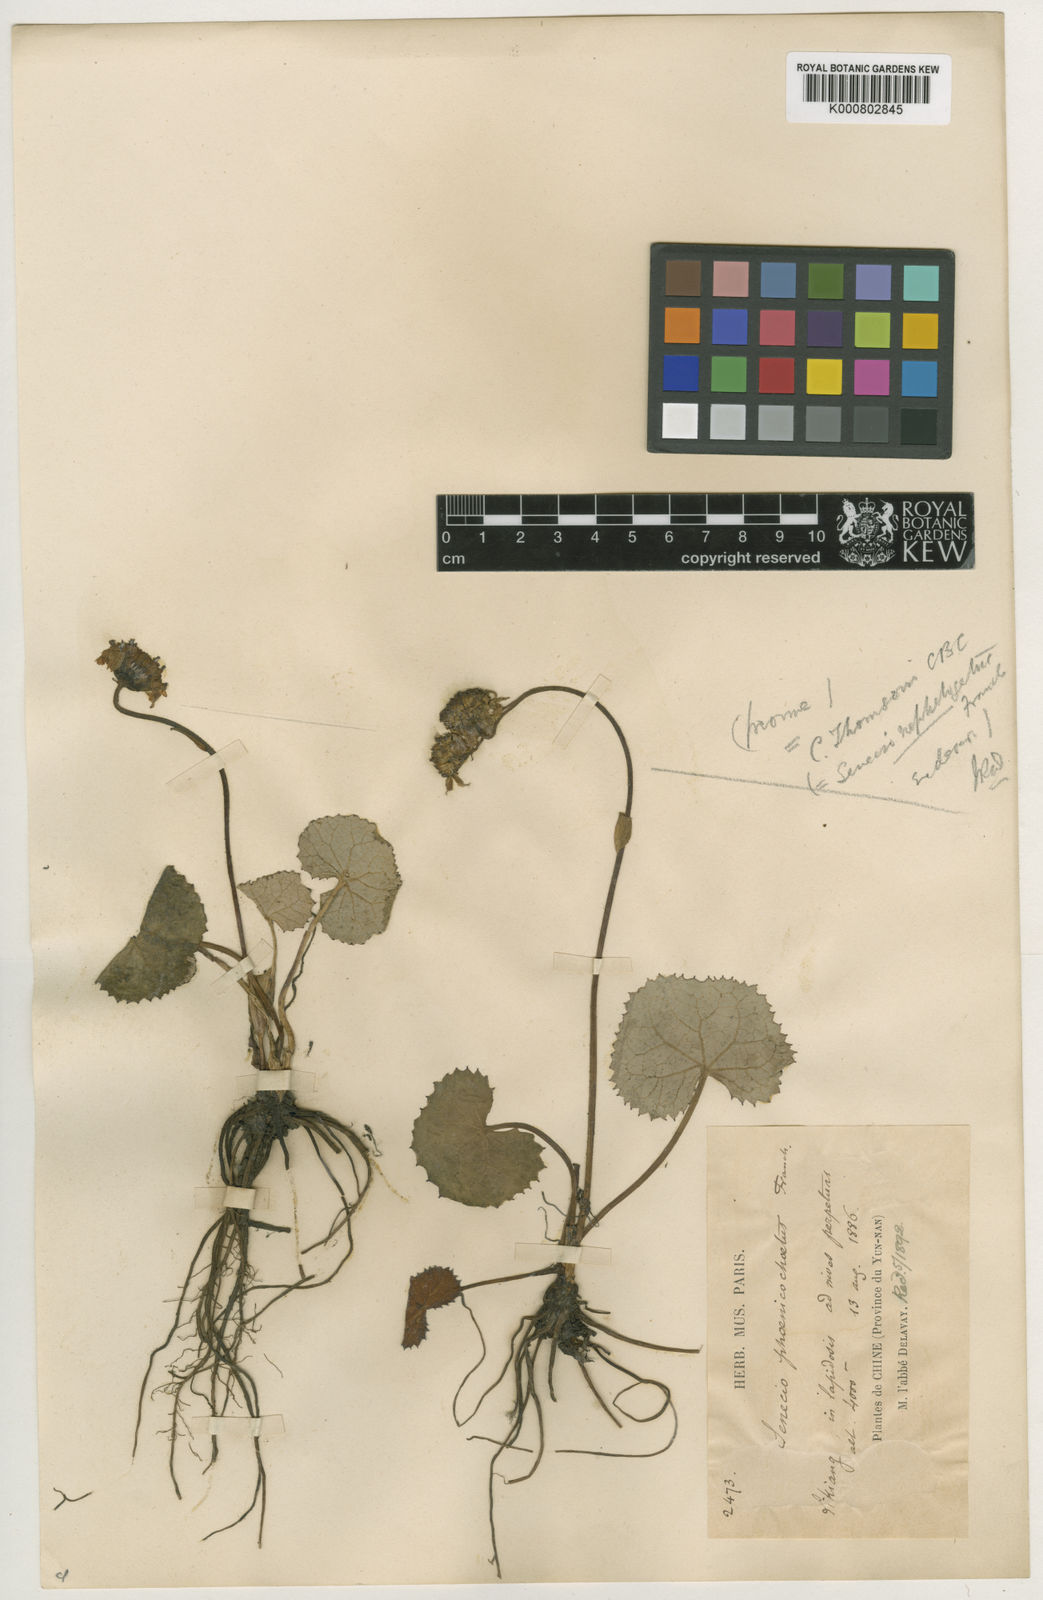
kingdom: Plantae
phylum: Tracheophyta
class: Magnoliopsida
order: Asterales
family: Asteraceae
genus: Ligularia
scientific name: Ligularia phoenicochaeta
